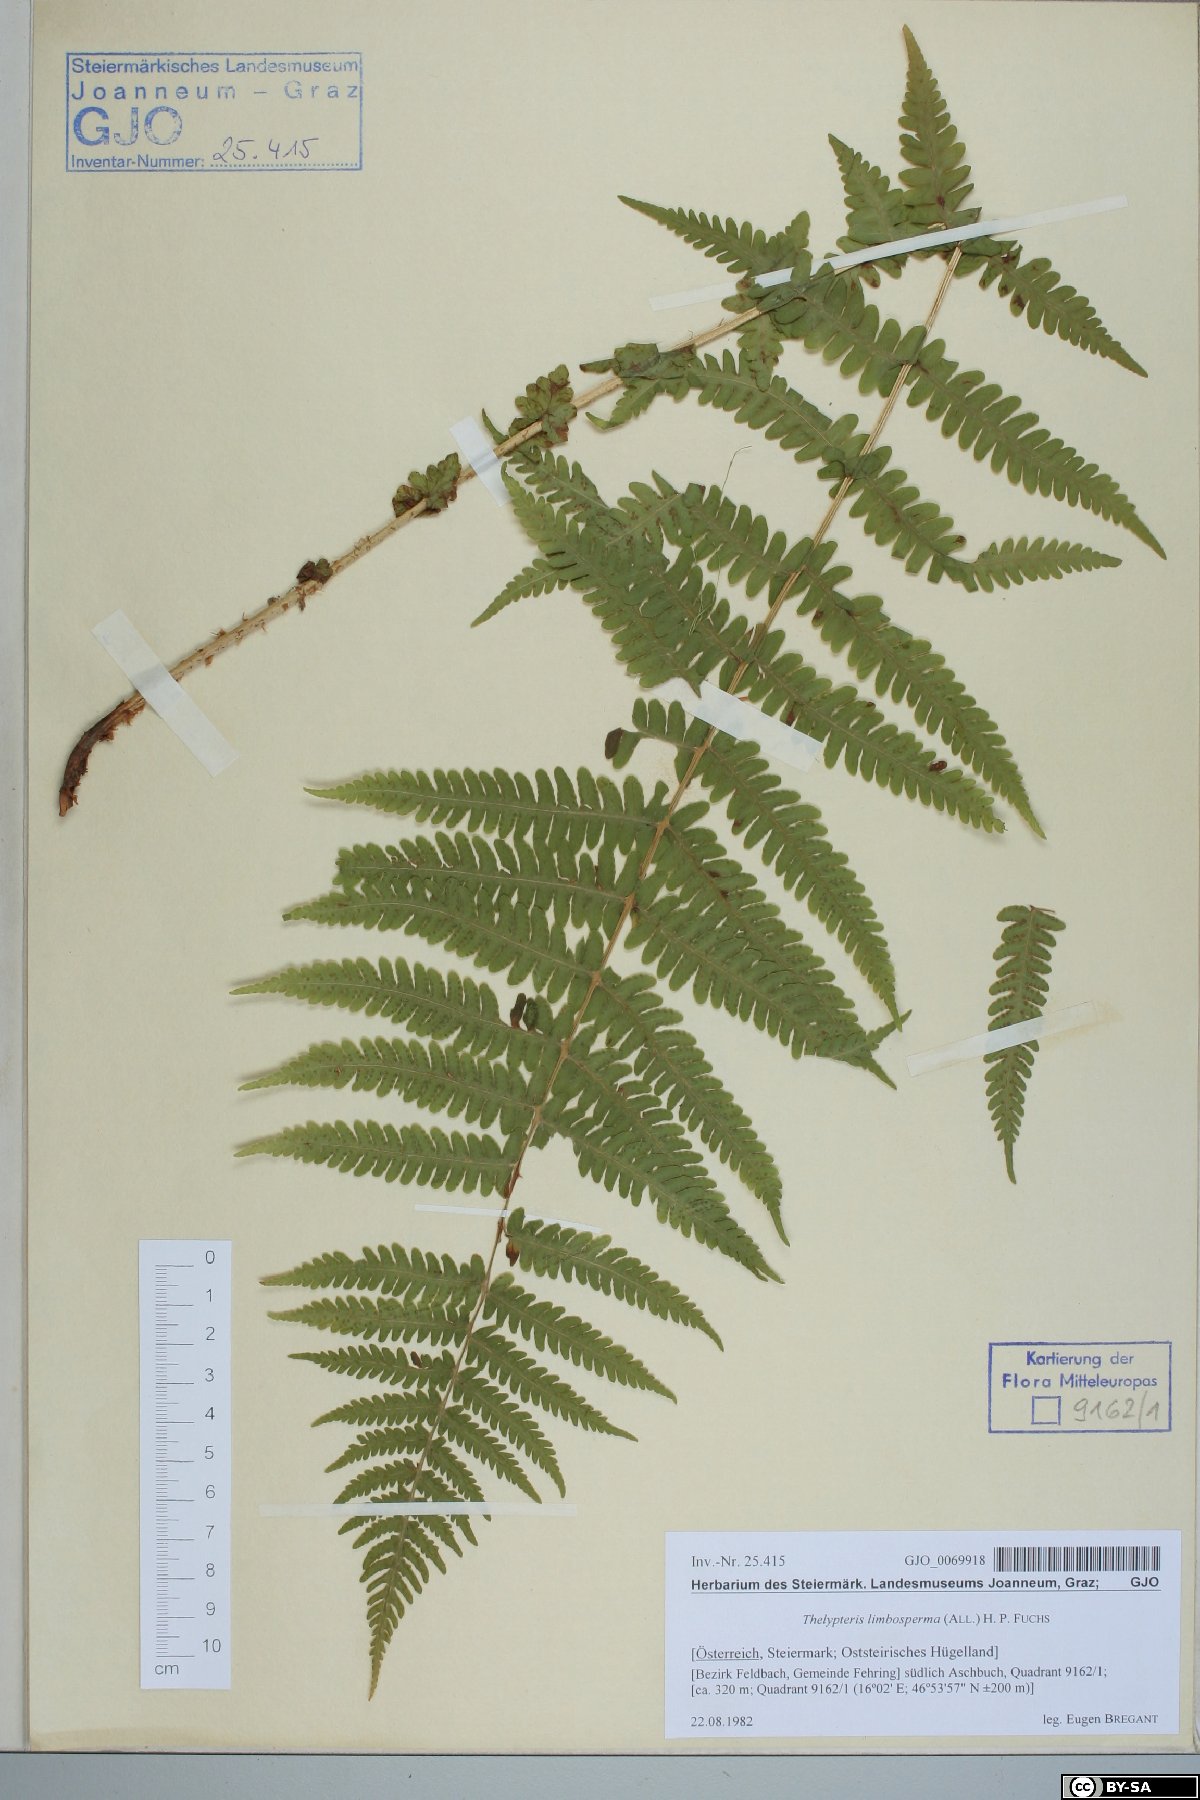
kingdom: Plantae
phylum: Tracheophyta
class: Polypodiopsida
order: Polypodiales
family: Thelypteridaceae
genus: Oreopteris
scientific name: Oreopteris limbosperma
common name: Lemon-scented fern
